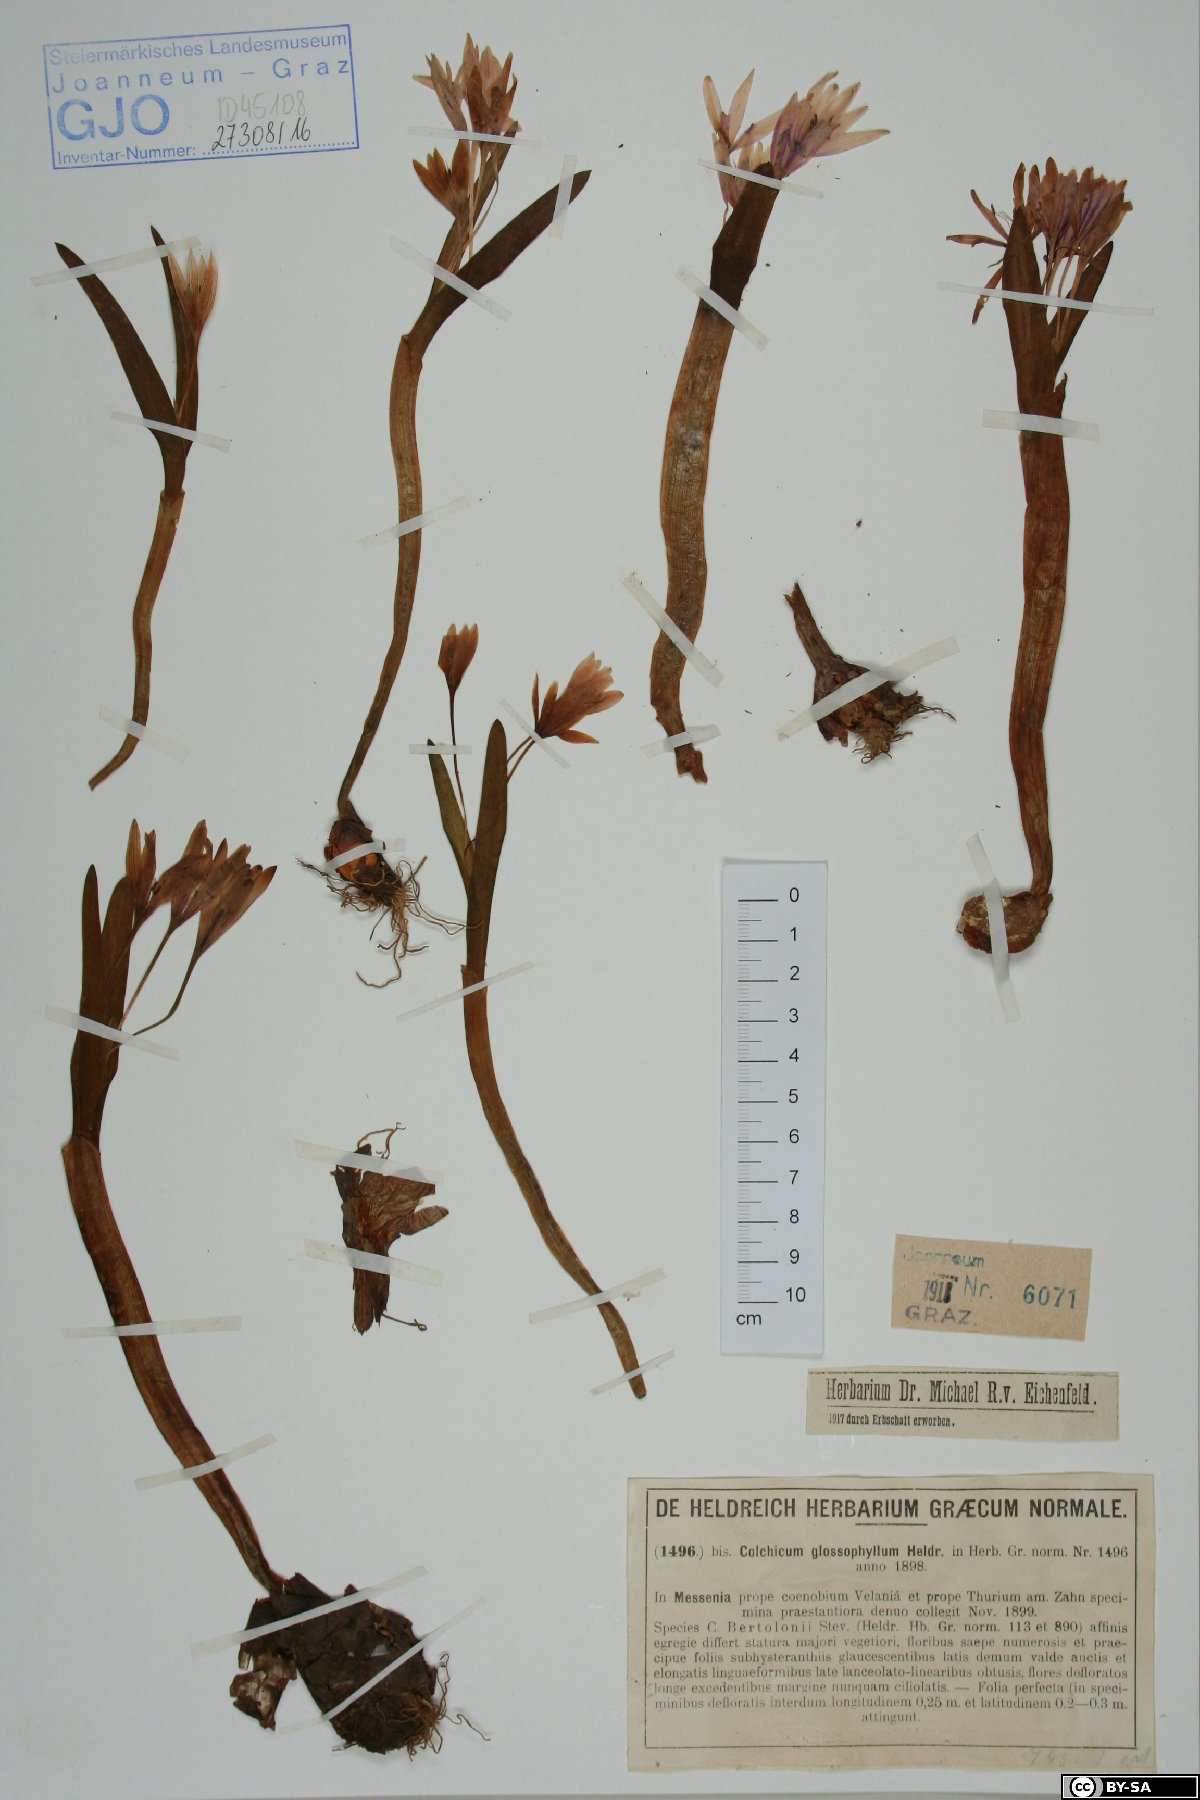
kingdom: Plantae
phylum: Tracheophyta
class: Liliopsida
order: Liliales
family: Colchicaceae
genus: Colchicum
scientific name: Colchicum cupanii
